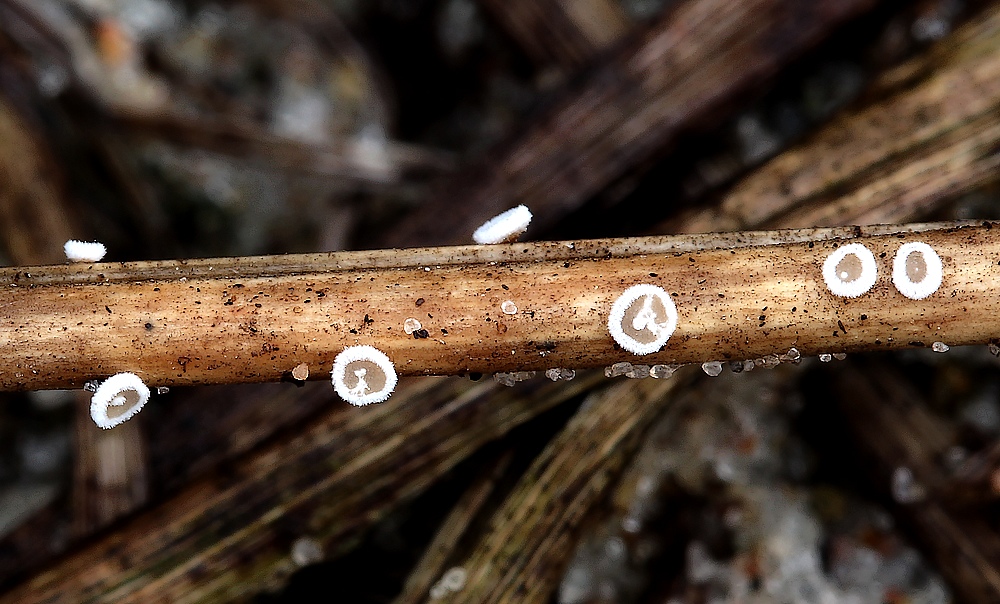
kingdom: Fungi
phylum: Basidiomycota
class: Agaricomycetes
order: Agaricales
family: Niaceae
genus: Lachnella
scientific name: Lachnella alboviolascens
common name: grå frynserede
